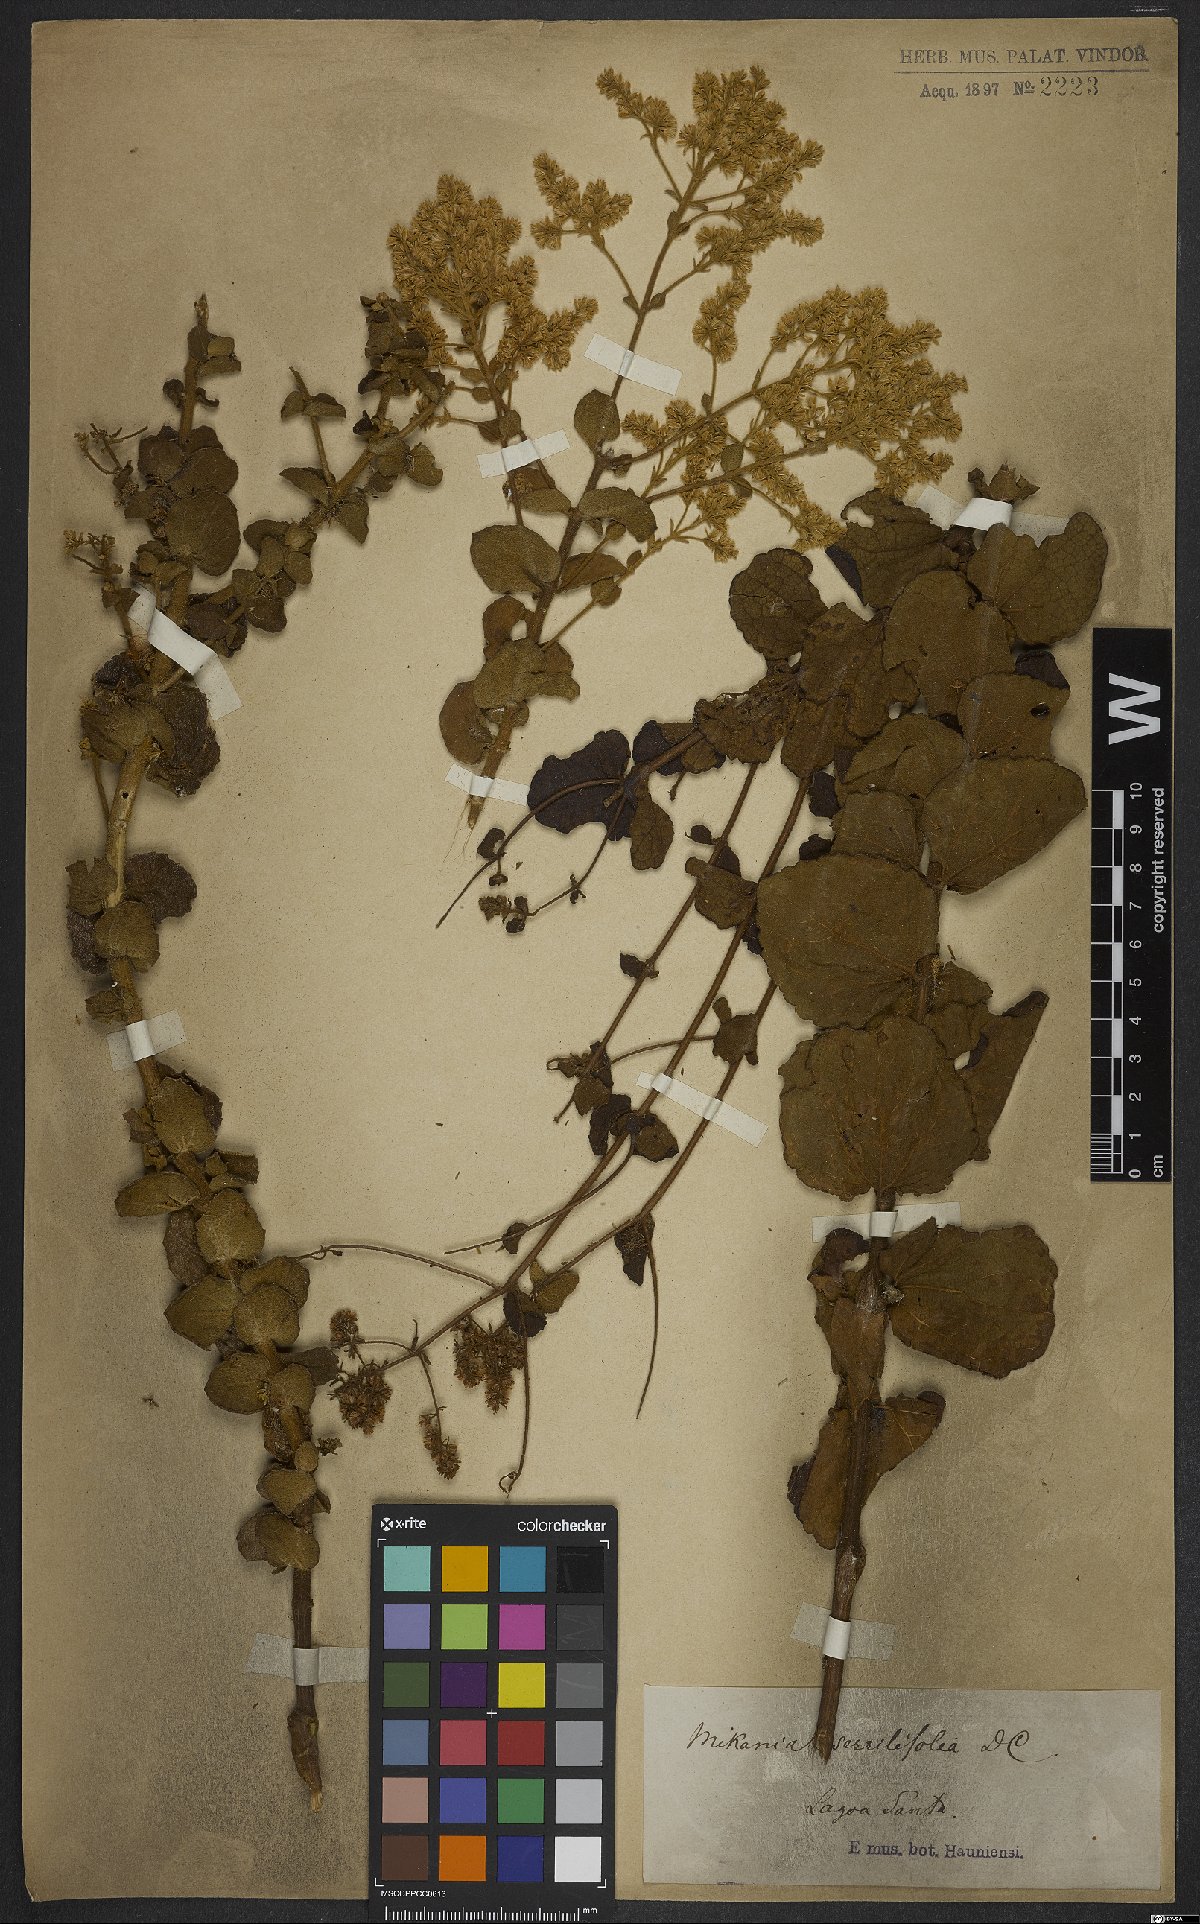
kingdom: Plantae
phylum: Tracheophyta
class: Magnoliopsida
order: Asterales
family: Asteraceae
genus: Mikania
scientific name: Mikania sessilifolia
